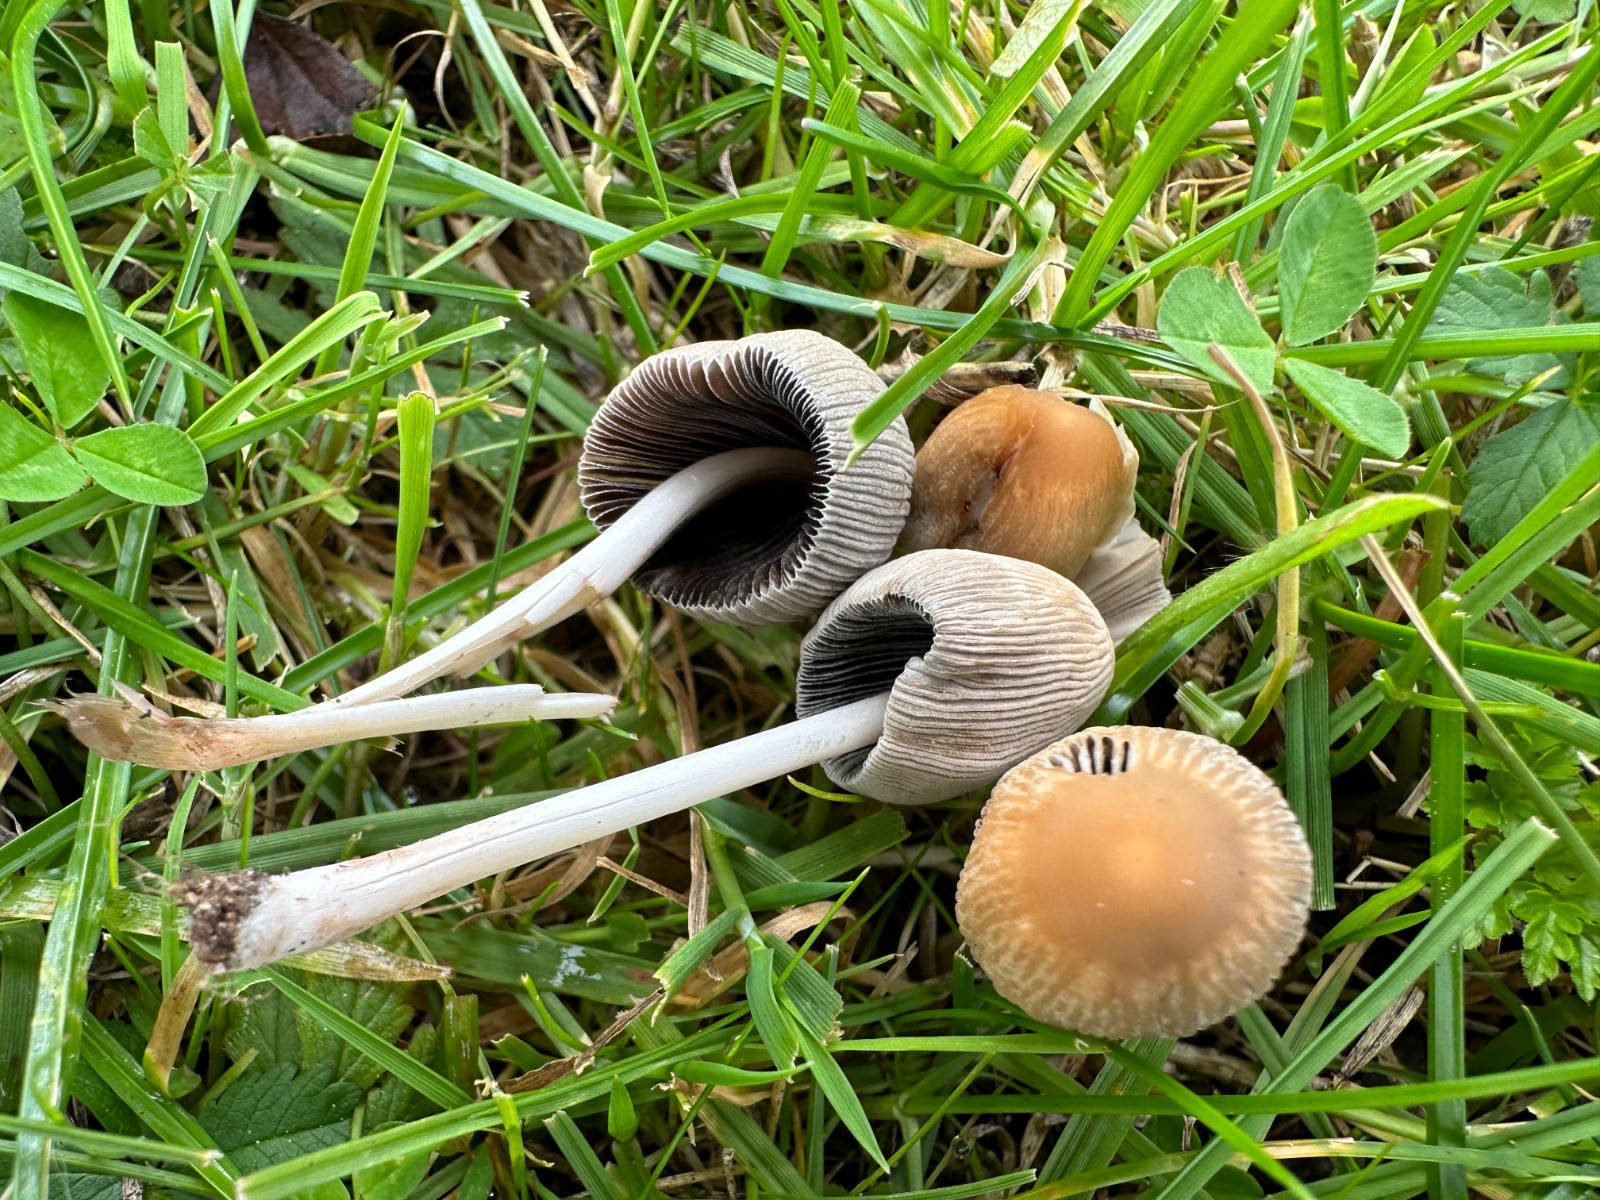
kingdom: Fungi
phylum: Basidiomycota
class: Agaricomycetes
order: Agaricales
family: Psathyrellaceae
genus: Parasola
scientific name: Parasola plicatilis
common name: plæne-hjulhat
